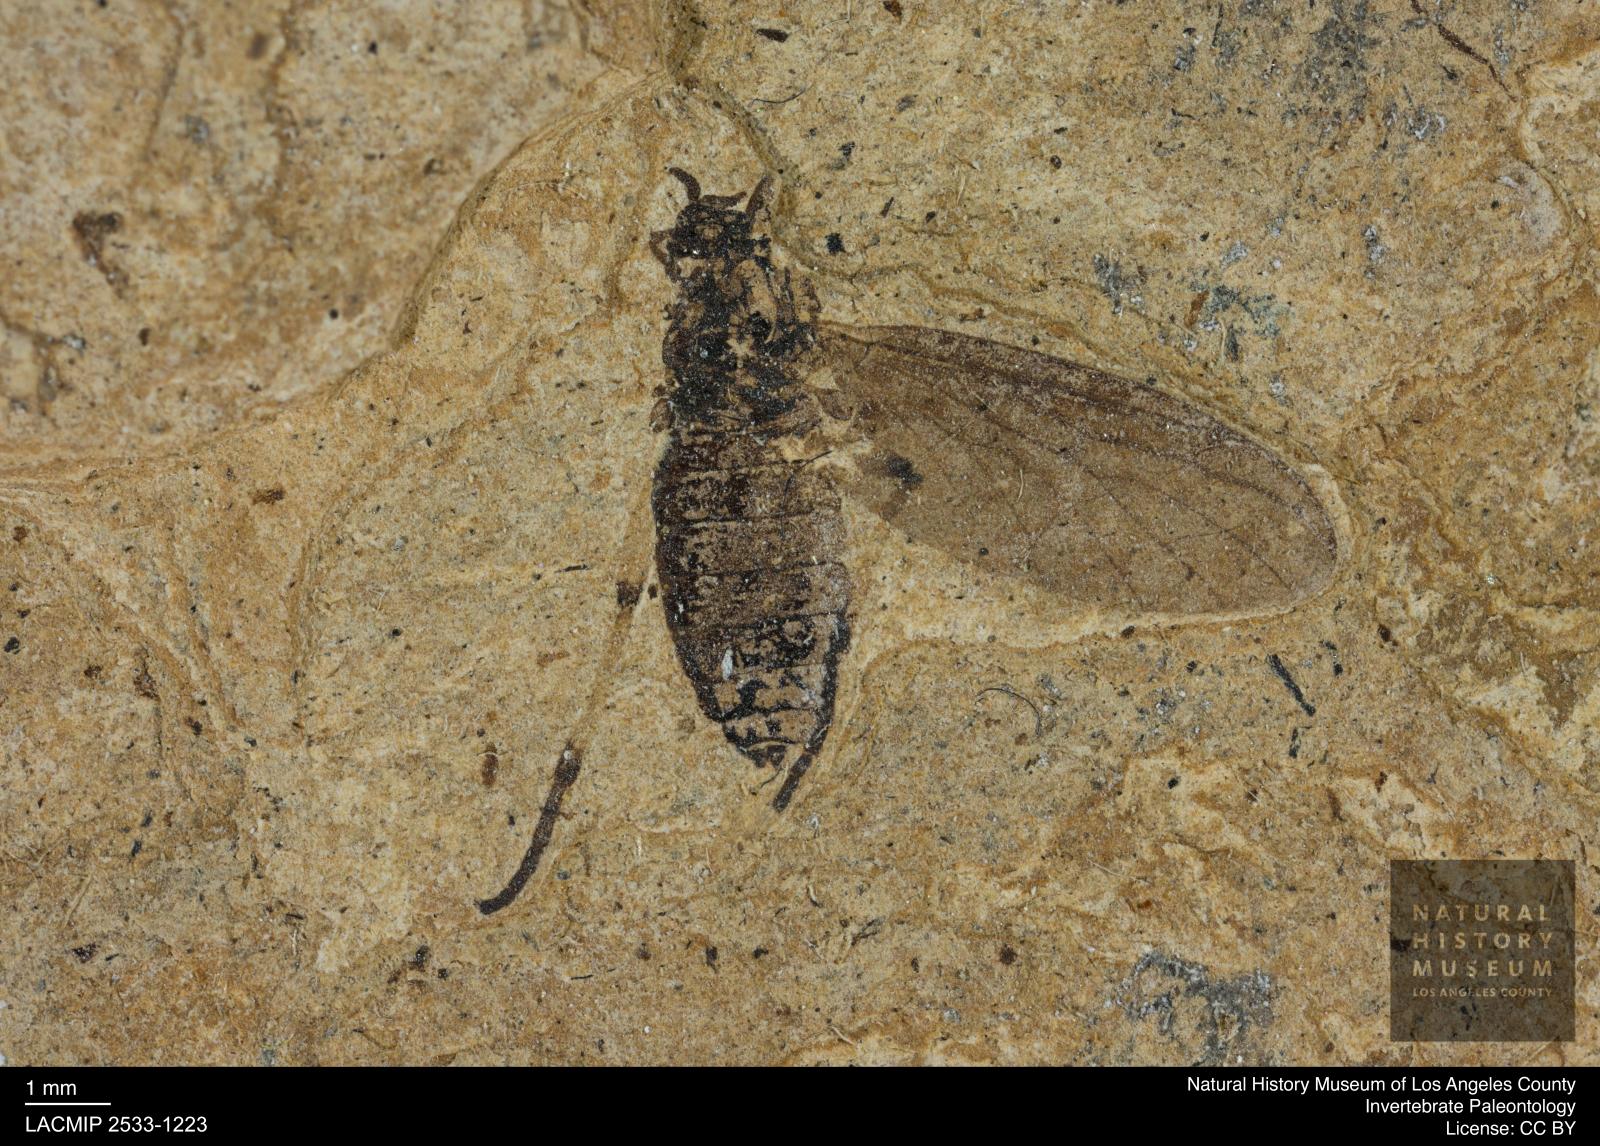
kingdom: Animalia
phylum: Arthropoda
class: Insecta
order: Diptera
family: Bibionidae
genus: Plecia
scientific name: Plecia stygia
